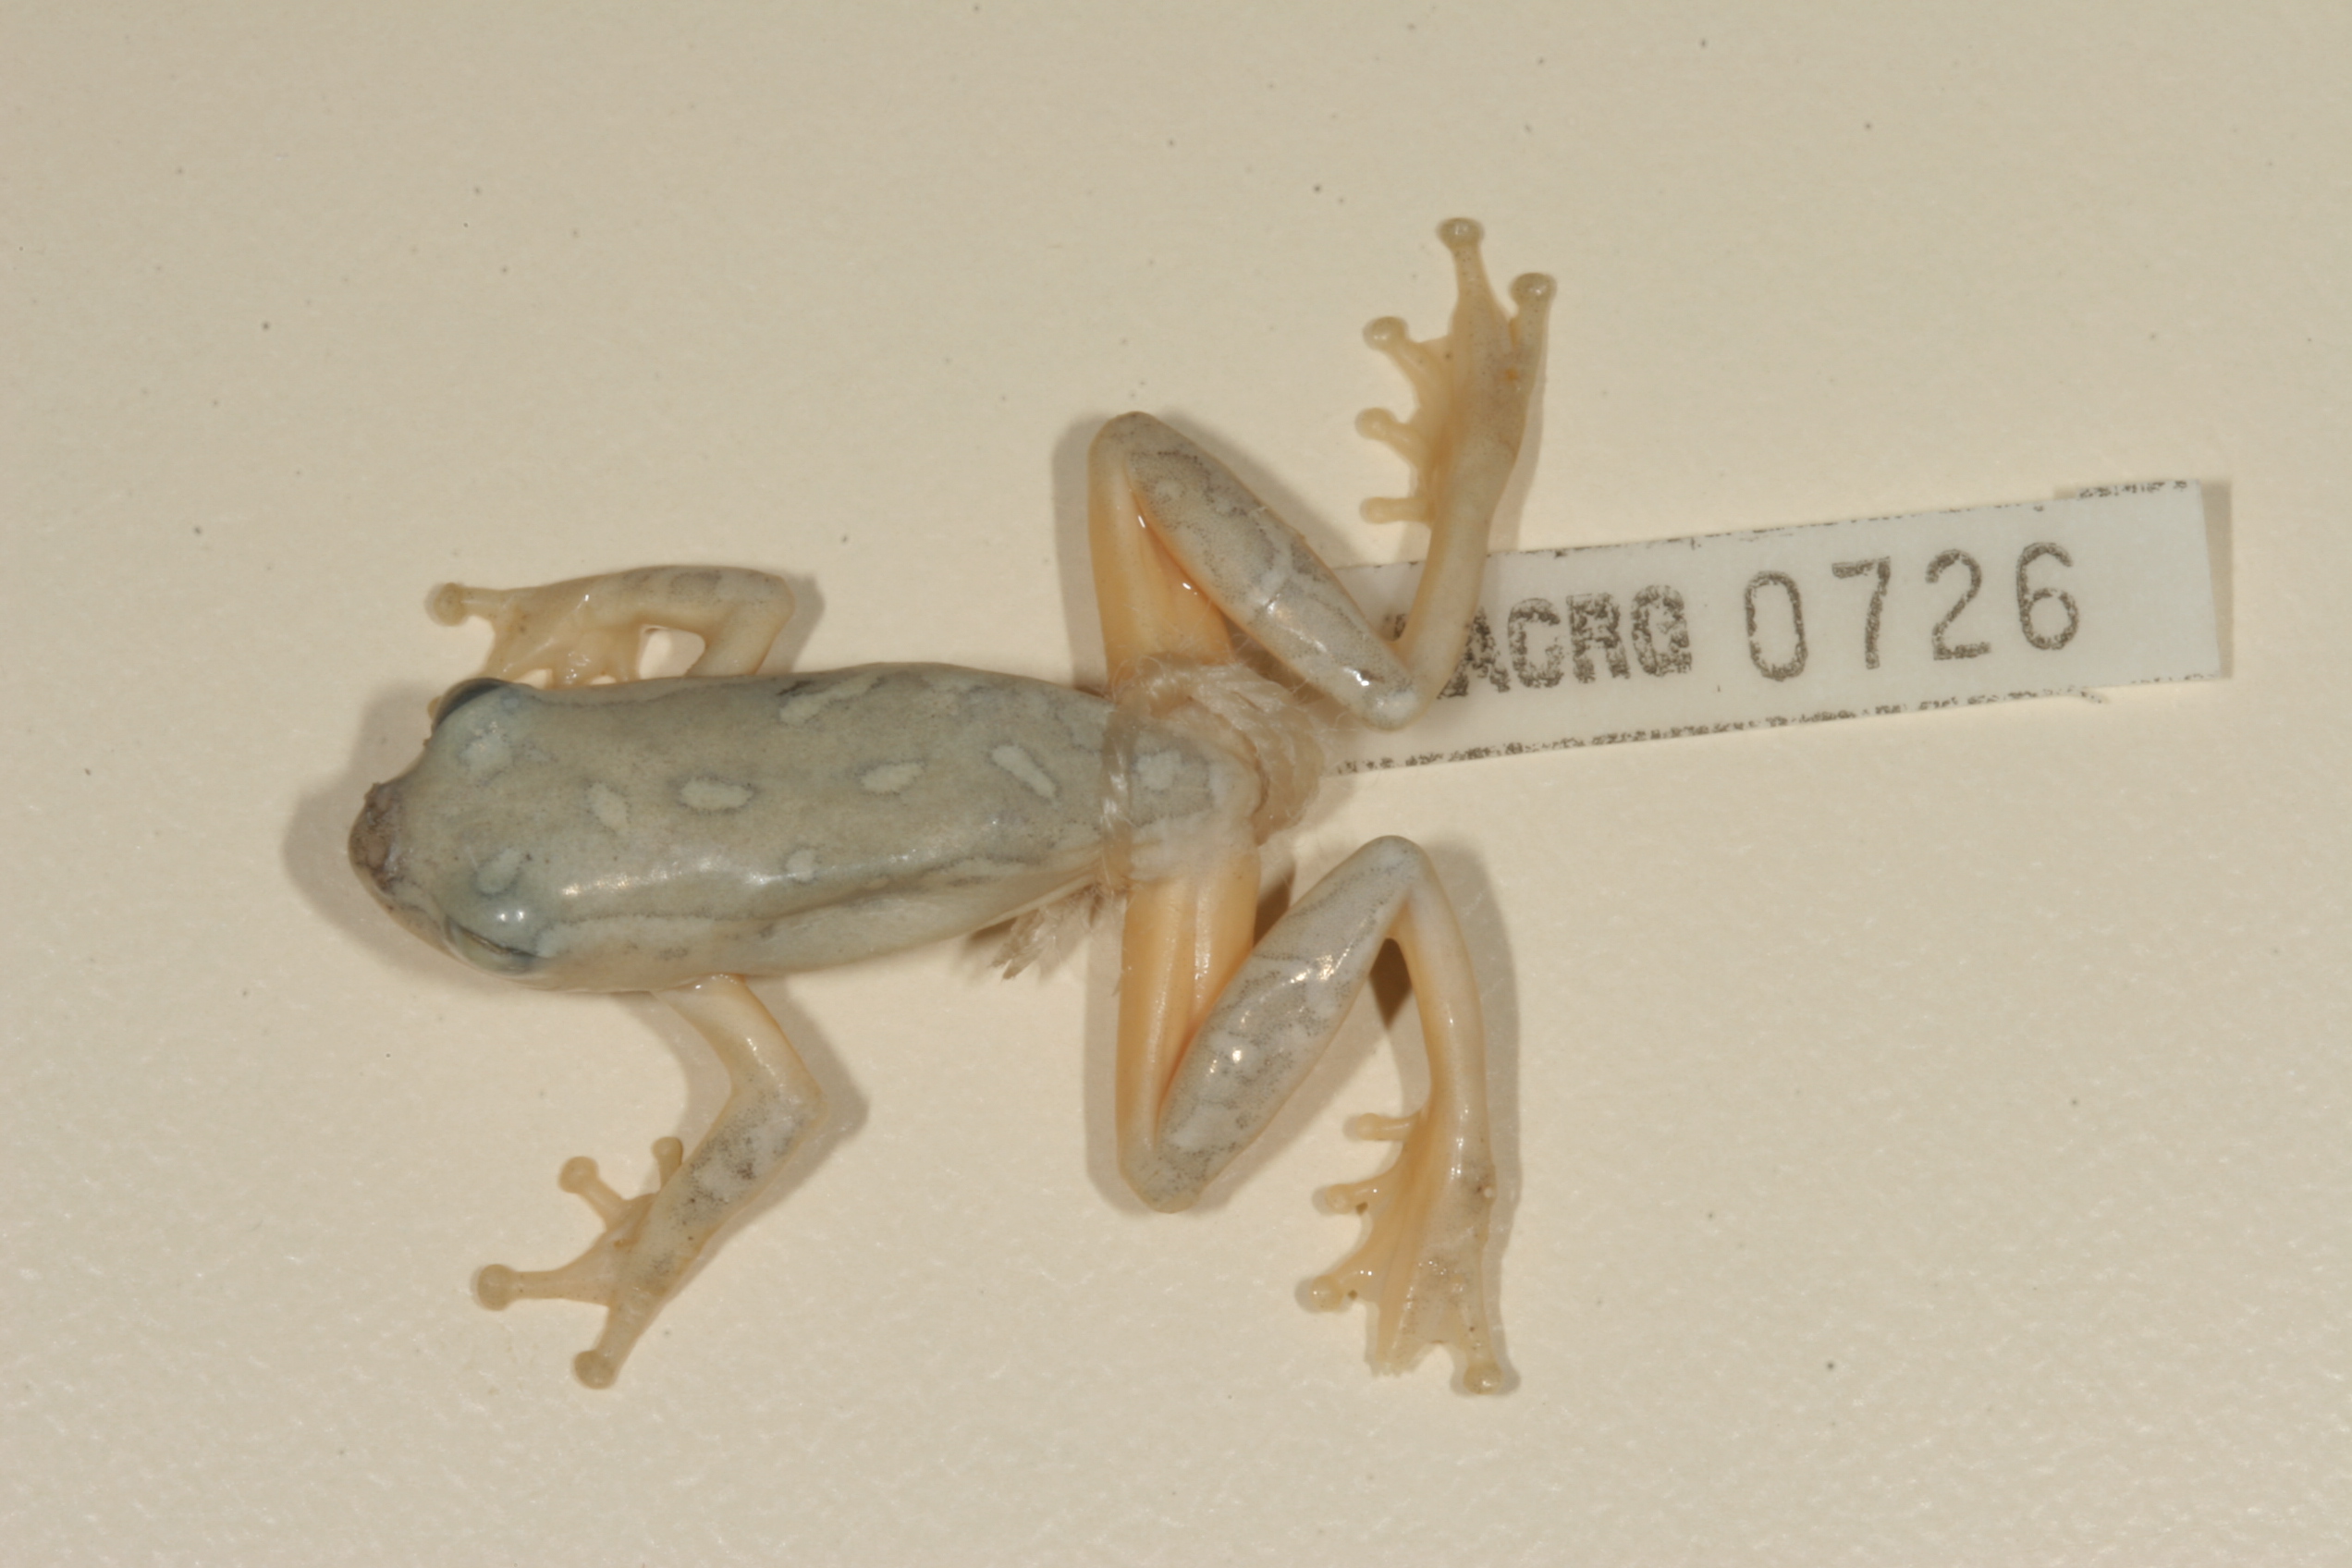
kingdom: Animalia
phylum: Chordata
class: Amphibia
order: Anura
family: Hyperoliidae
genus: Hyperolius
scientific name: Hyperolius marmoratus
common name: Painted reed frog
